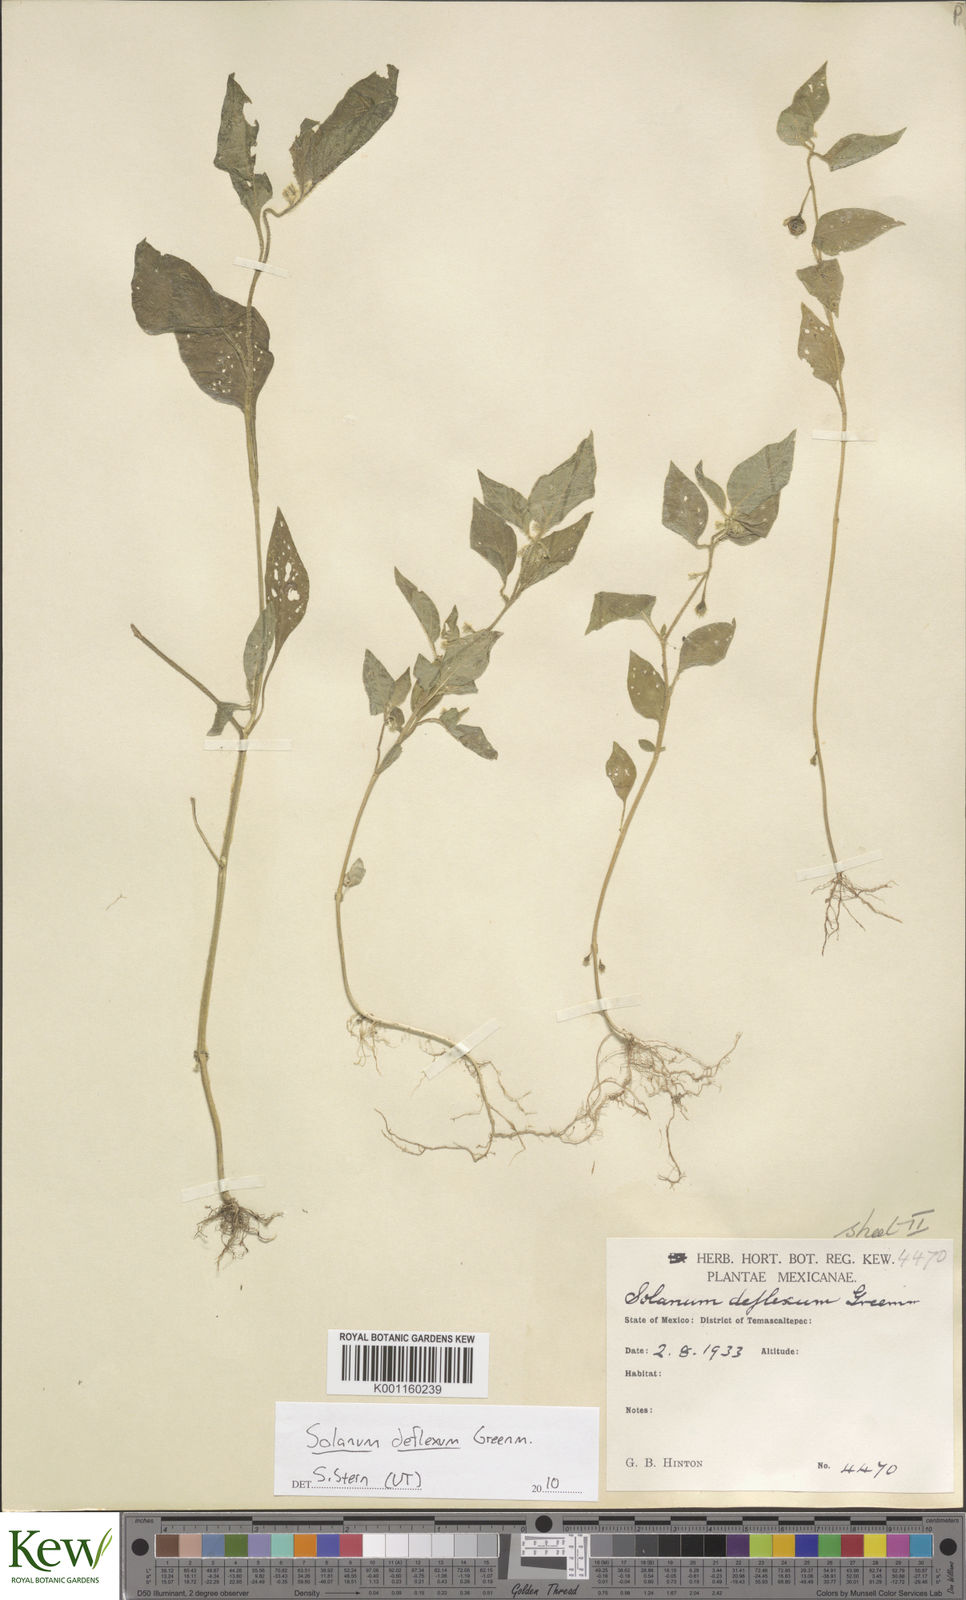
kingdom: Plantae
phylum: Tracheophyta
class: Magnoliopsida
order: Solanales
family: Solanaceae
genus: Solanum
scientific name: Solanum deflexum
